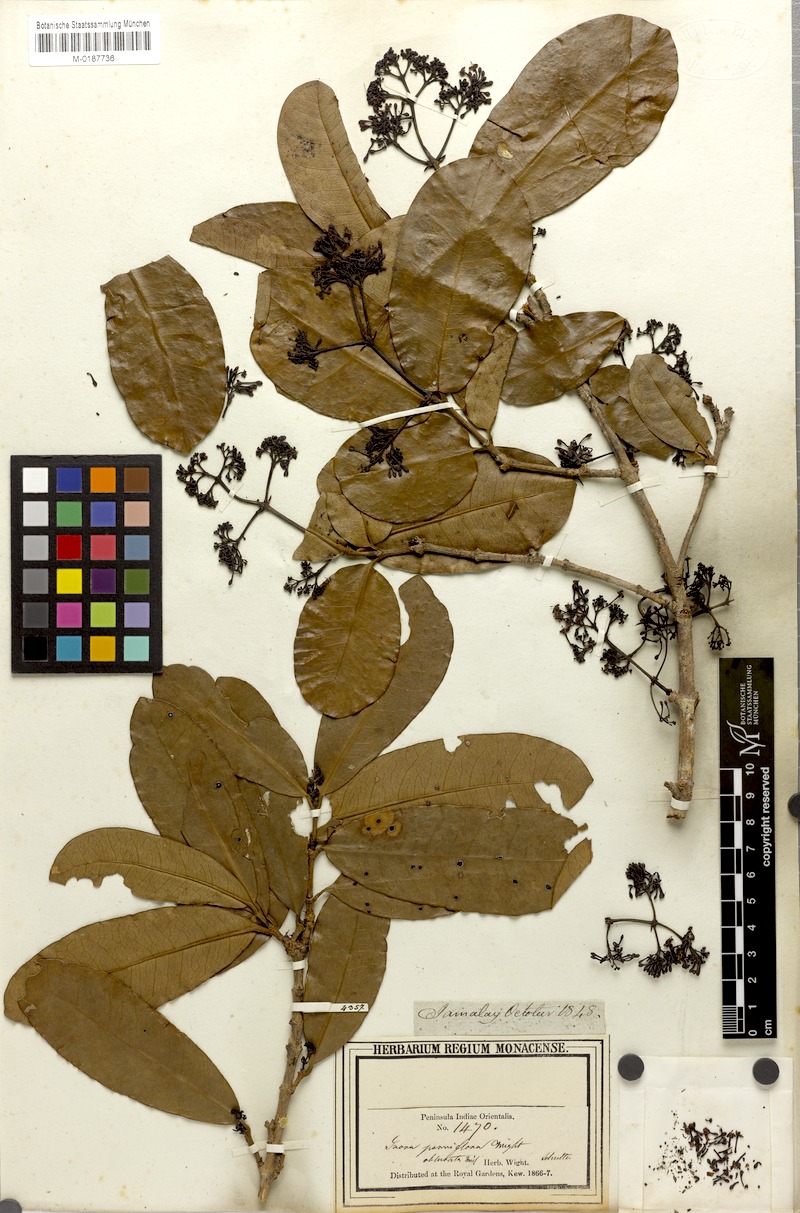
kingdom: Plantae
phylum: Tracheophyta
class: Magnoliopsida
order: Gentianales
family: Rubiaceae
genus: Ixora
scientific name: Ixora parviflora
